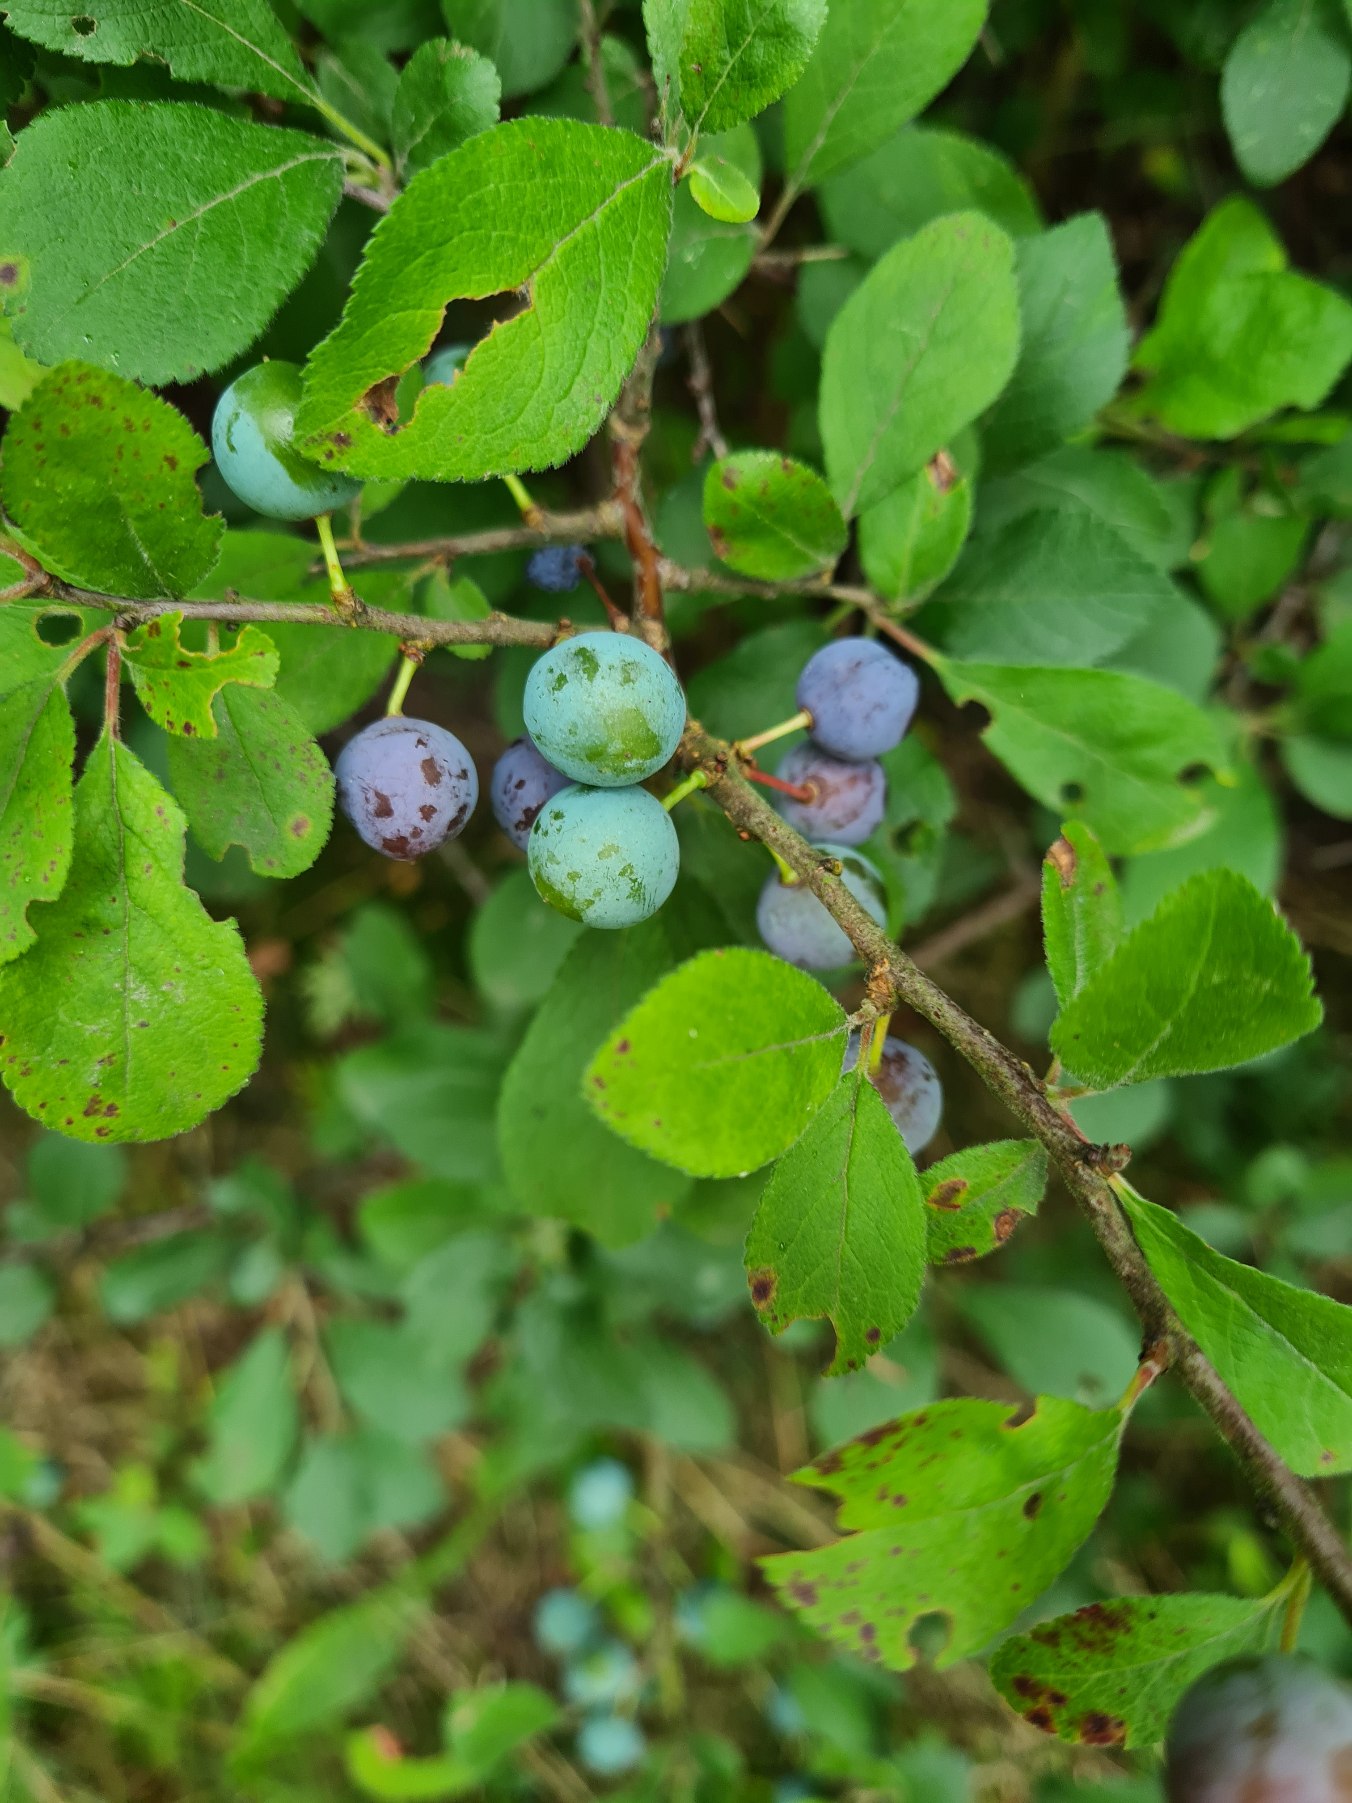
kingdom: Plantae
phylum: Tracheophyta
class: Magnoliopsida
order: Rosales
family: Rosaceae
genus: Prunus
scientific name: Prunus spinosa
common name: Slåen
